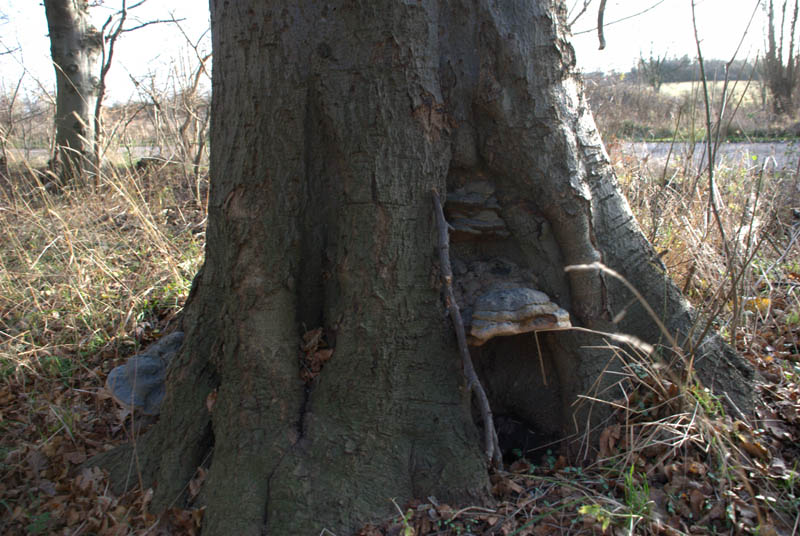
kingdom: Fungi
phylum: Basidiomycota
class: Agaricomycetes
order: Polyporales
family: Polyporaceae
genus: Ganoderma
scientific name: Ganoderma pfeifferi
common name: kobberrød lakporesvamp
